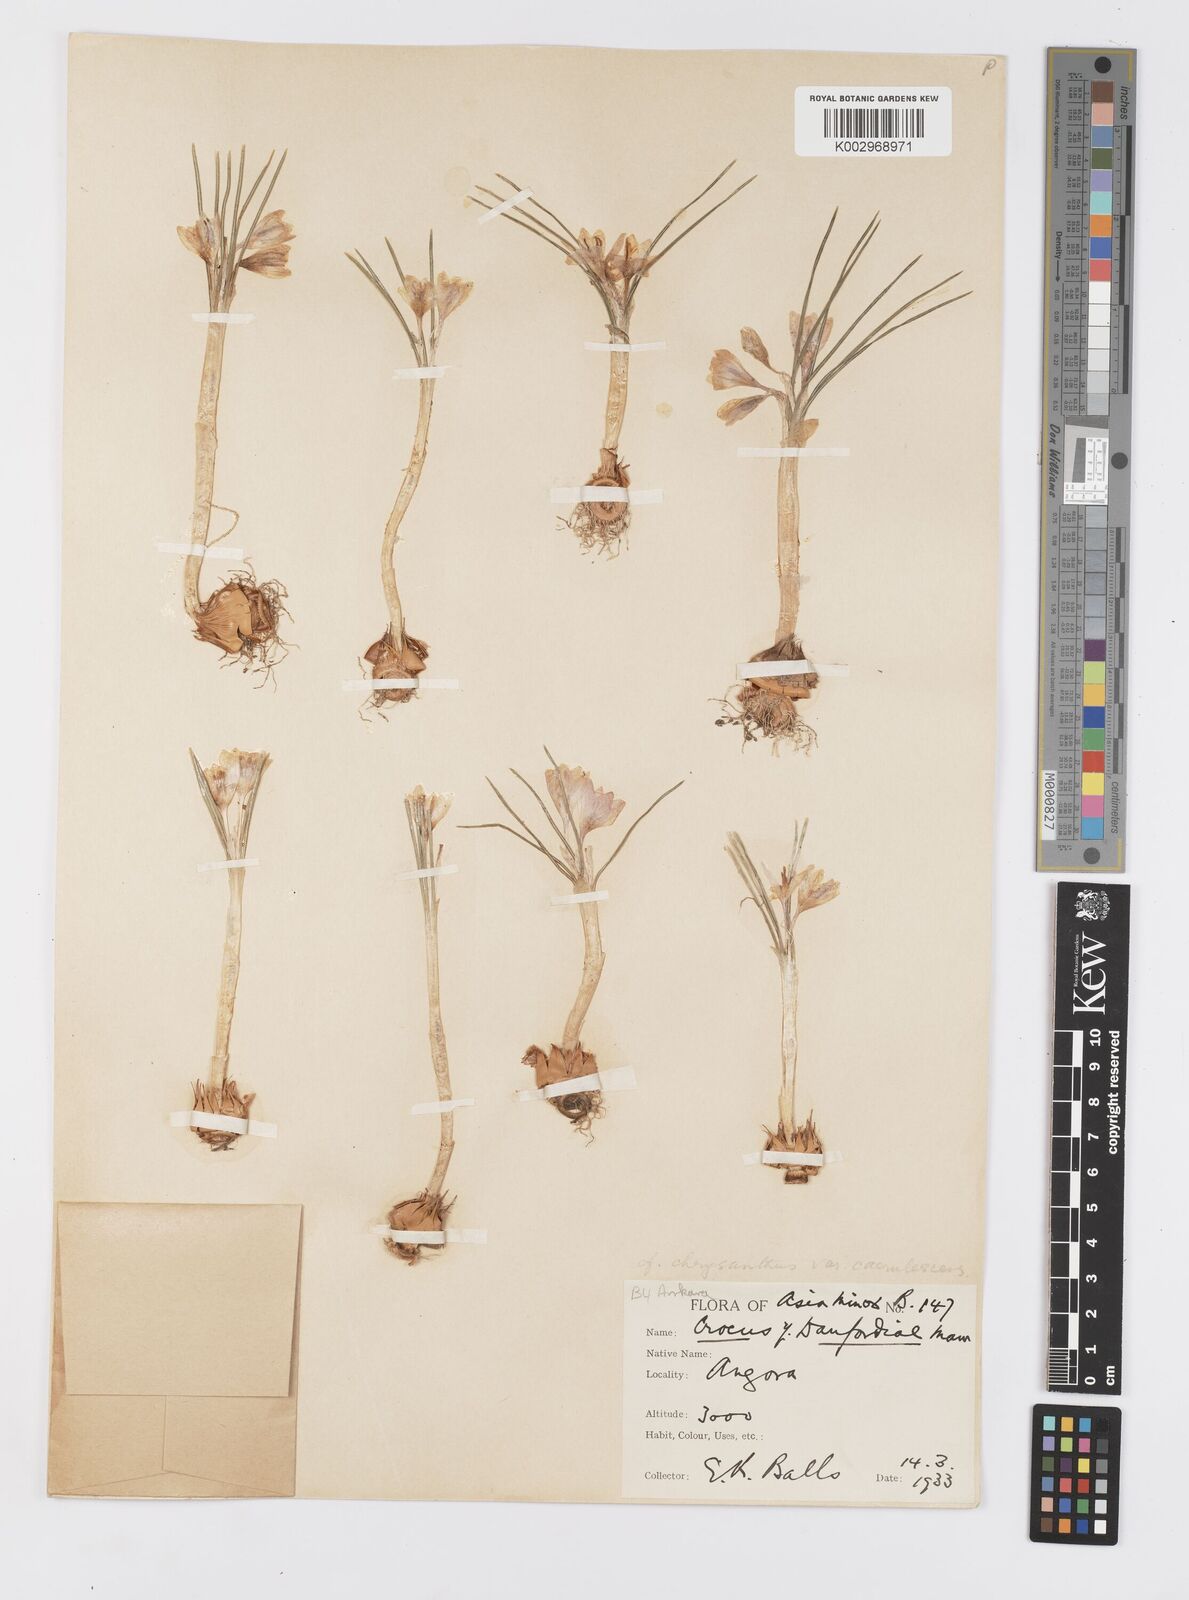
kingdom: Plantae
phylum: Tracheophyta
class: Liliopsida
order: Asparagales
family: Iridaceae
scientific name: Iridaceae
